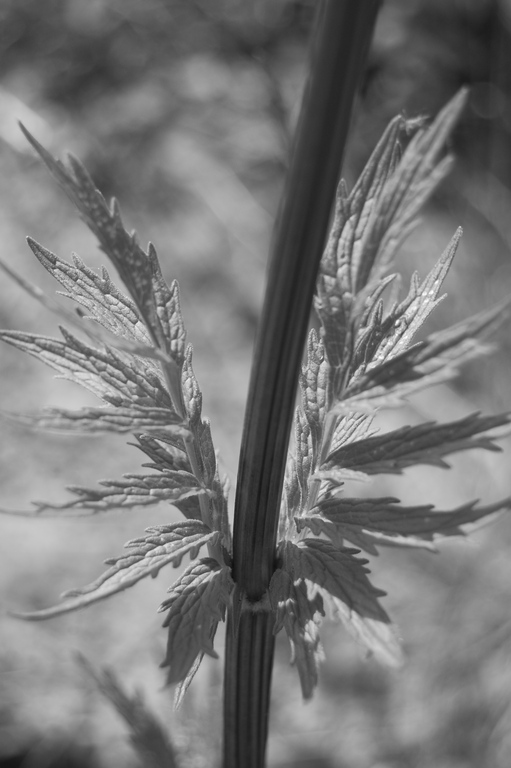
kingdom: Plantae
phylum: Tracheophyta
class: Magnoliopsida
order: Dipsacales
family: Caprifoliaceae
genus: Valeriana
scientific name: Valeriana officinalis
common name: Common valerian
